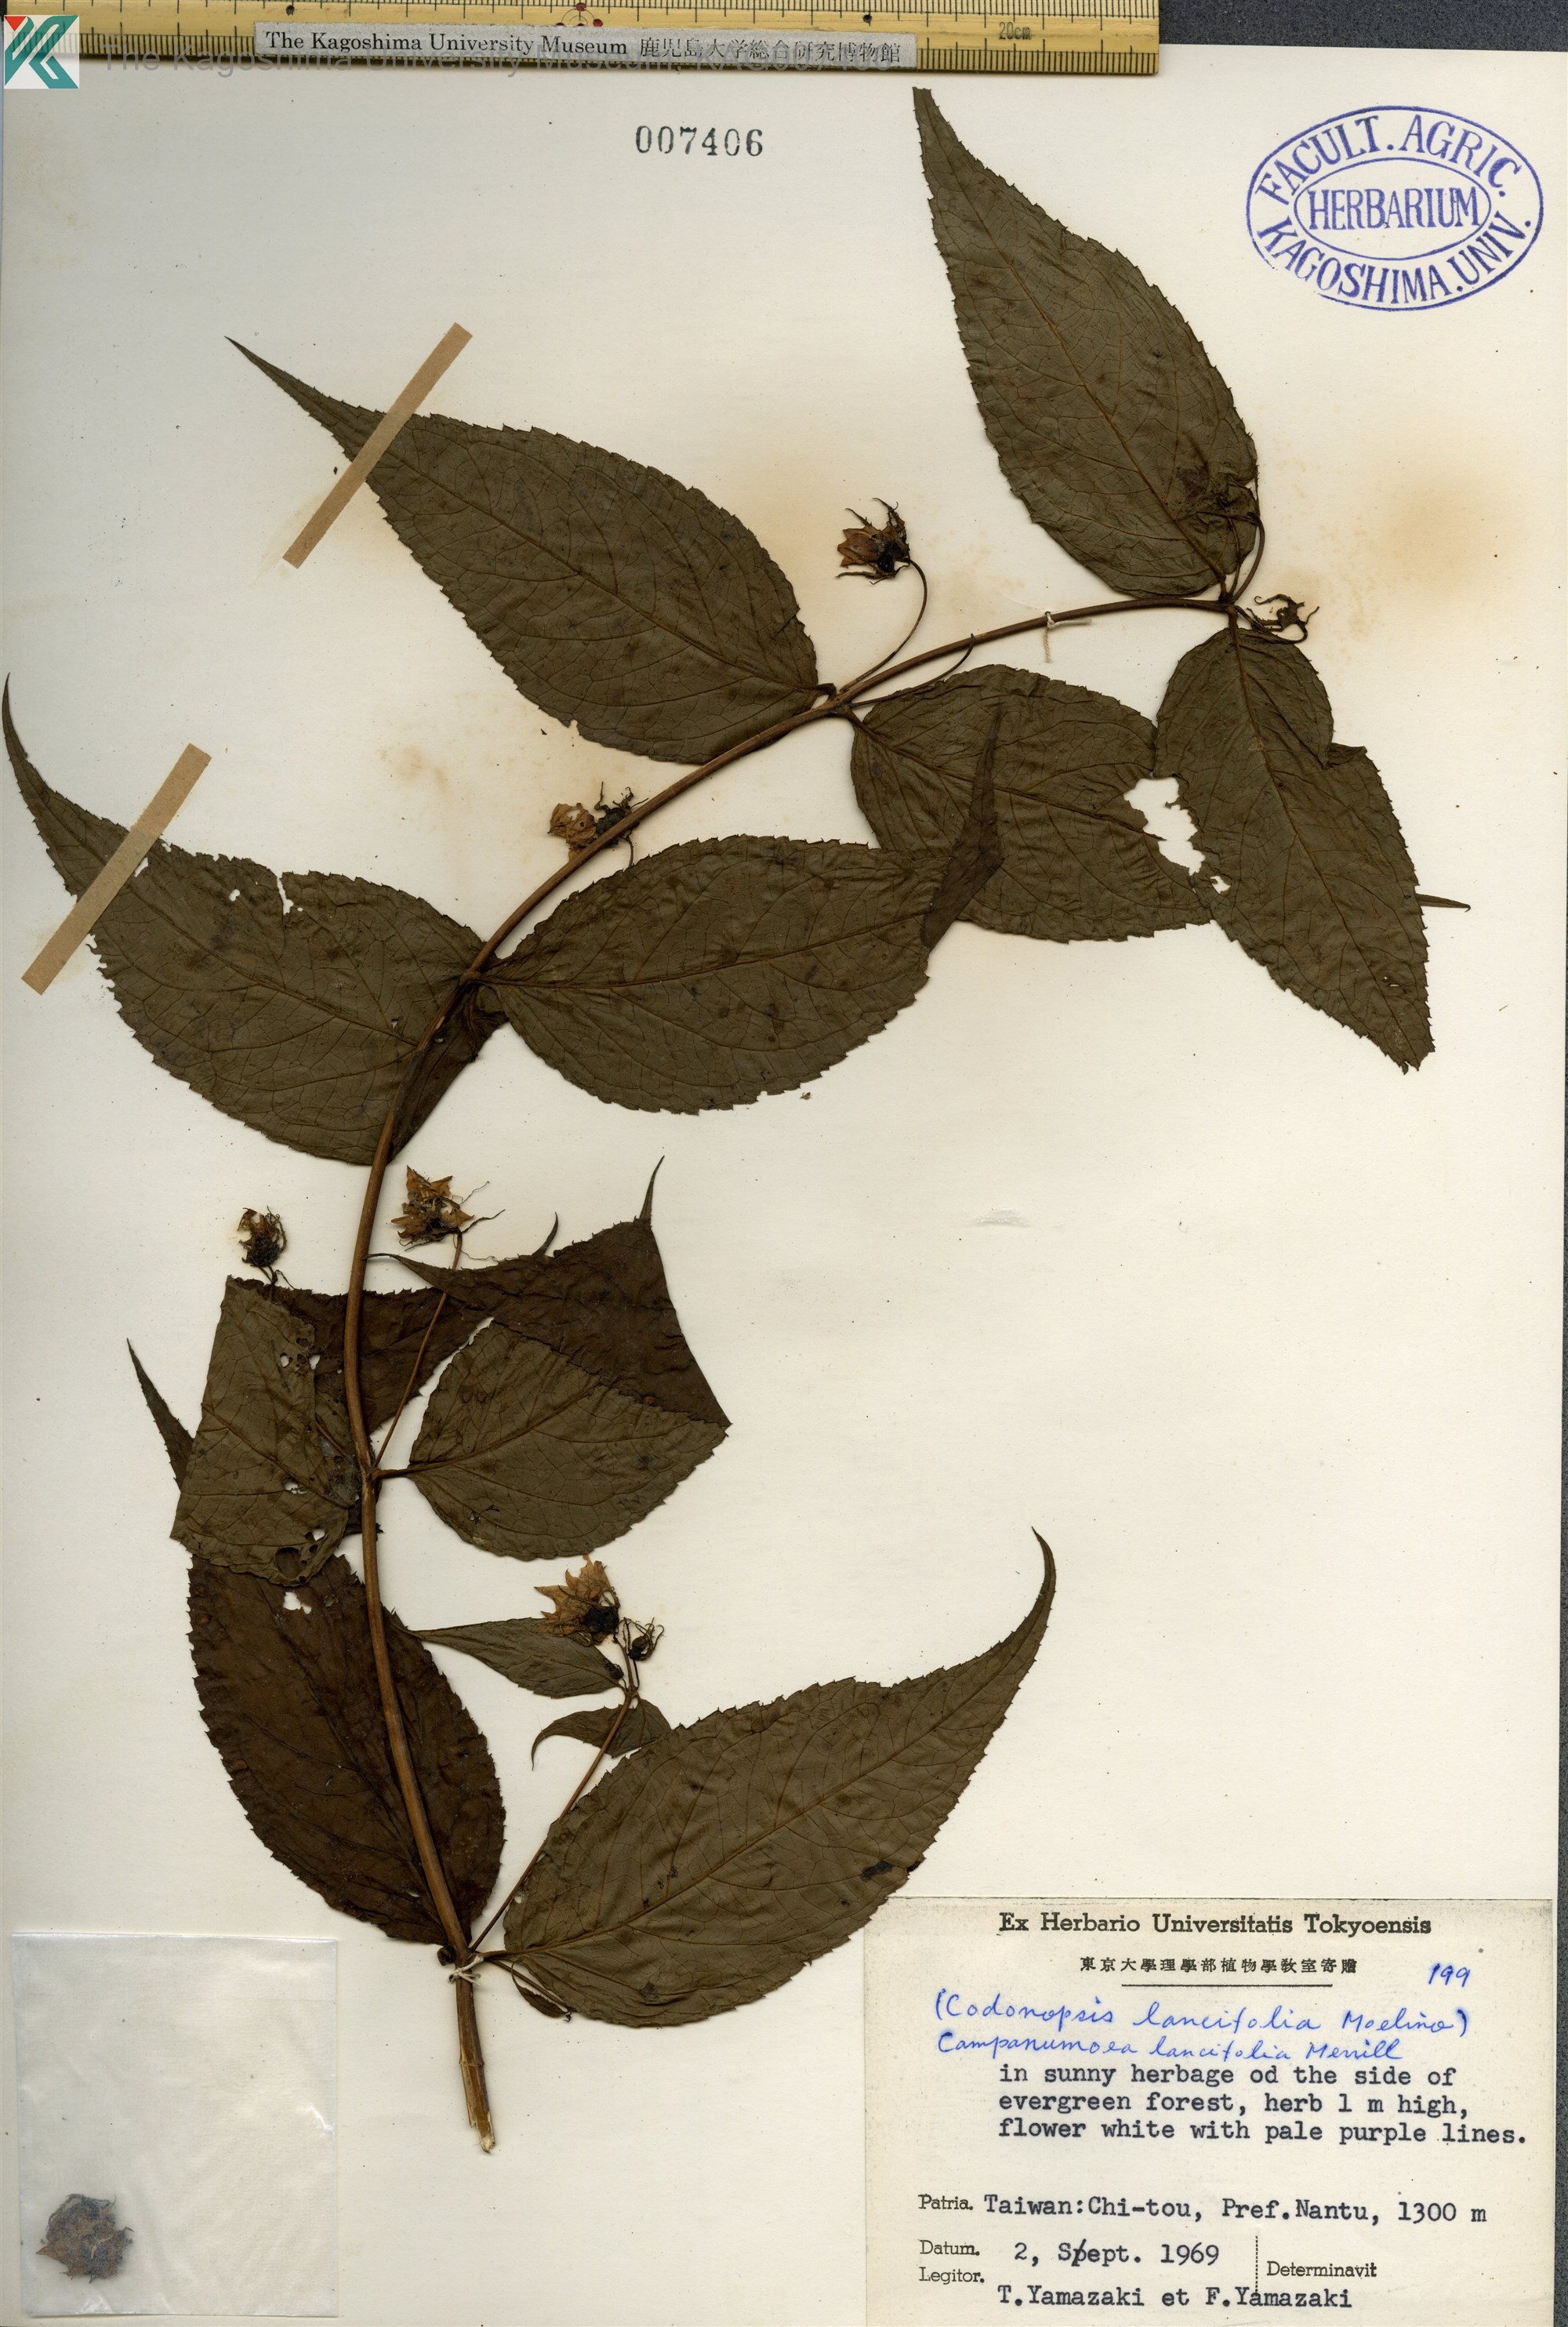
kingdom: Plantae
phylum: Tracheophyta
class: Magnoliopsida
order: Asterales
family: Campanulaceae
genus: Cyclocodon
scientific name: Cyclocodon lancifolius
